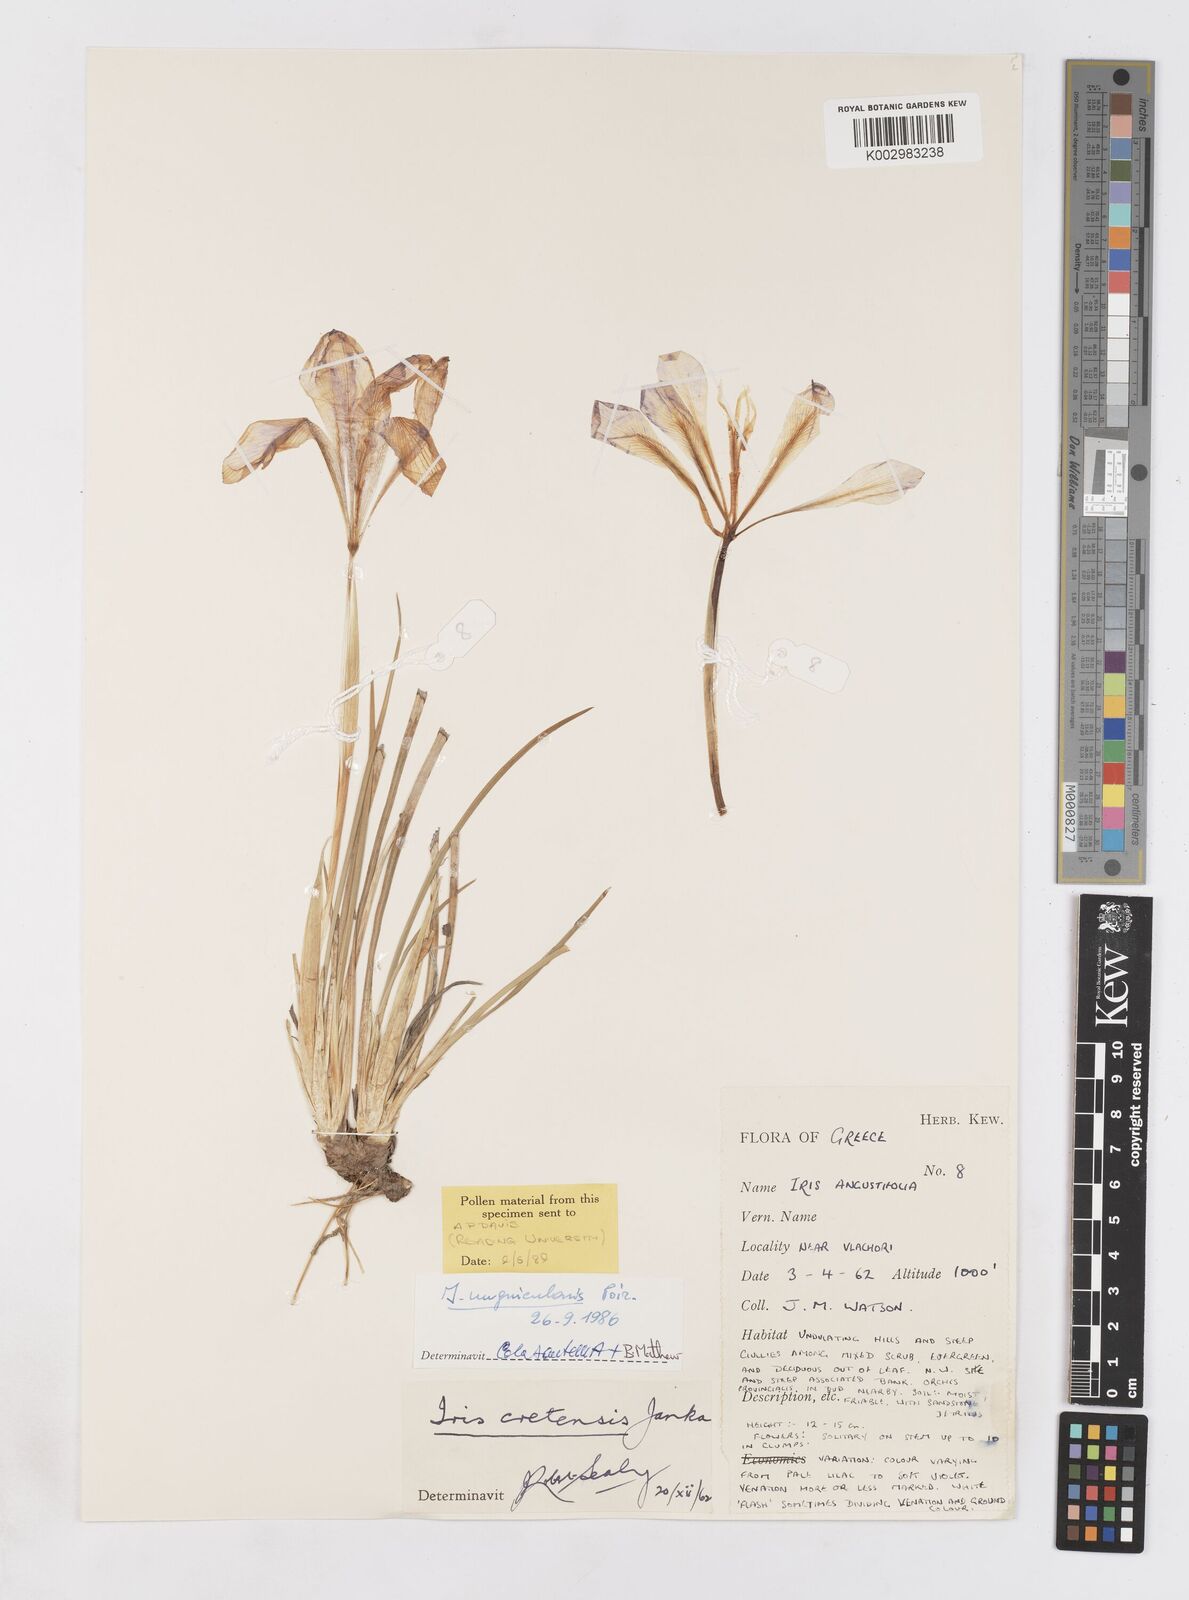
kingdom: Plantae
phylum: Tracheophyta
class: Liliopsida
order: Asparagales
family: Iridaceae
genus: Iris
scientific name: Iris unguicularis
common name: Algerian iris
